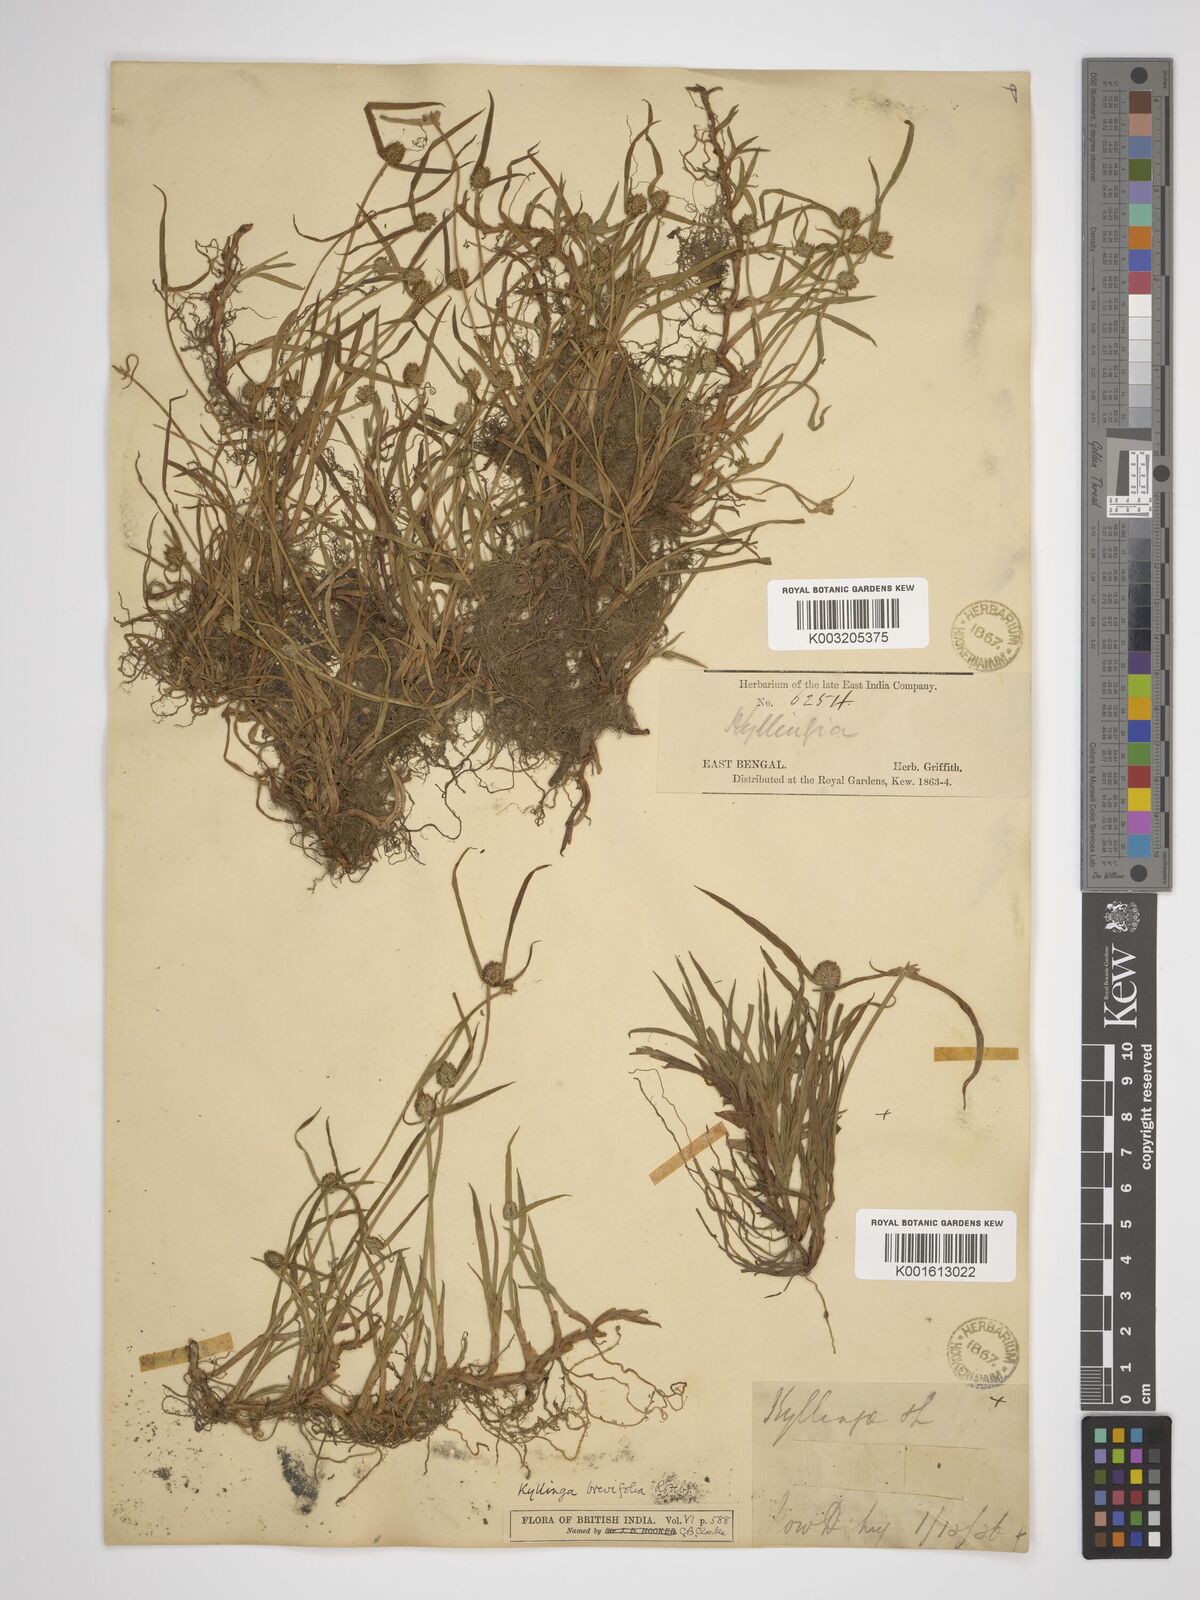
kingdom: Plantae
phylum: Tracheophyta
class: Liliopsida
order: Poales
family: Cyperaceae
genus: Cyperus
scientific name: Cyperus
